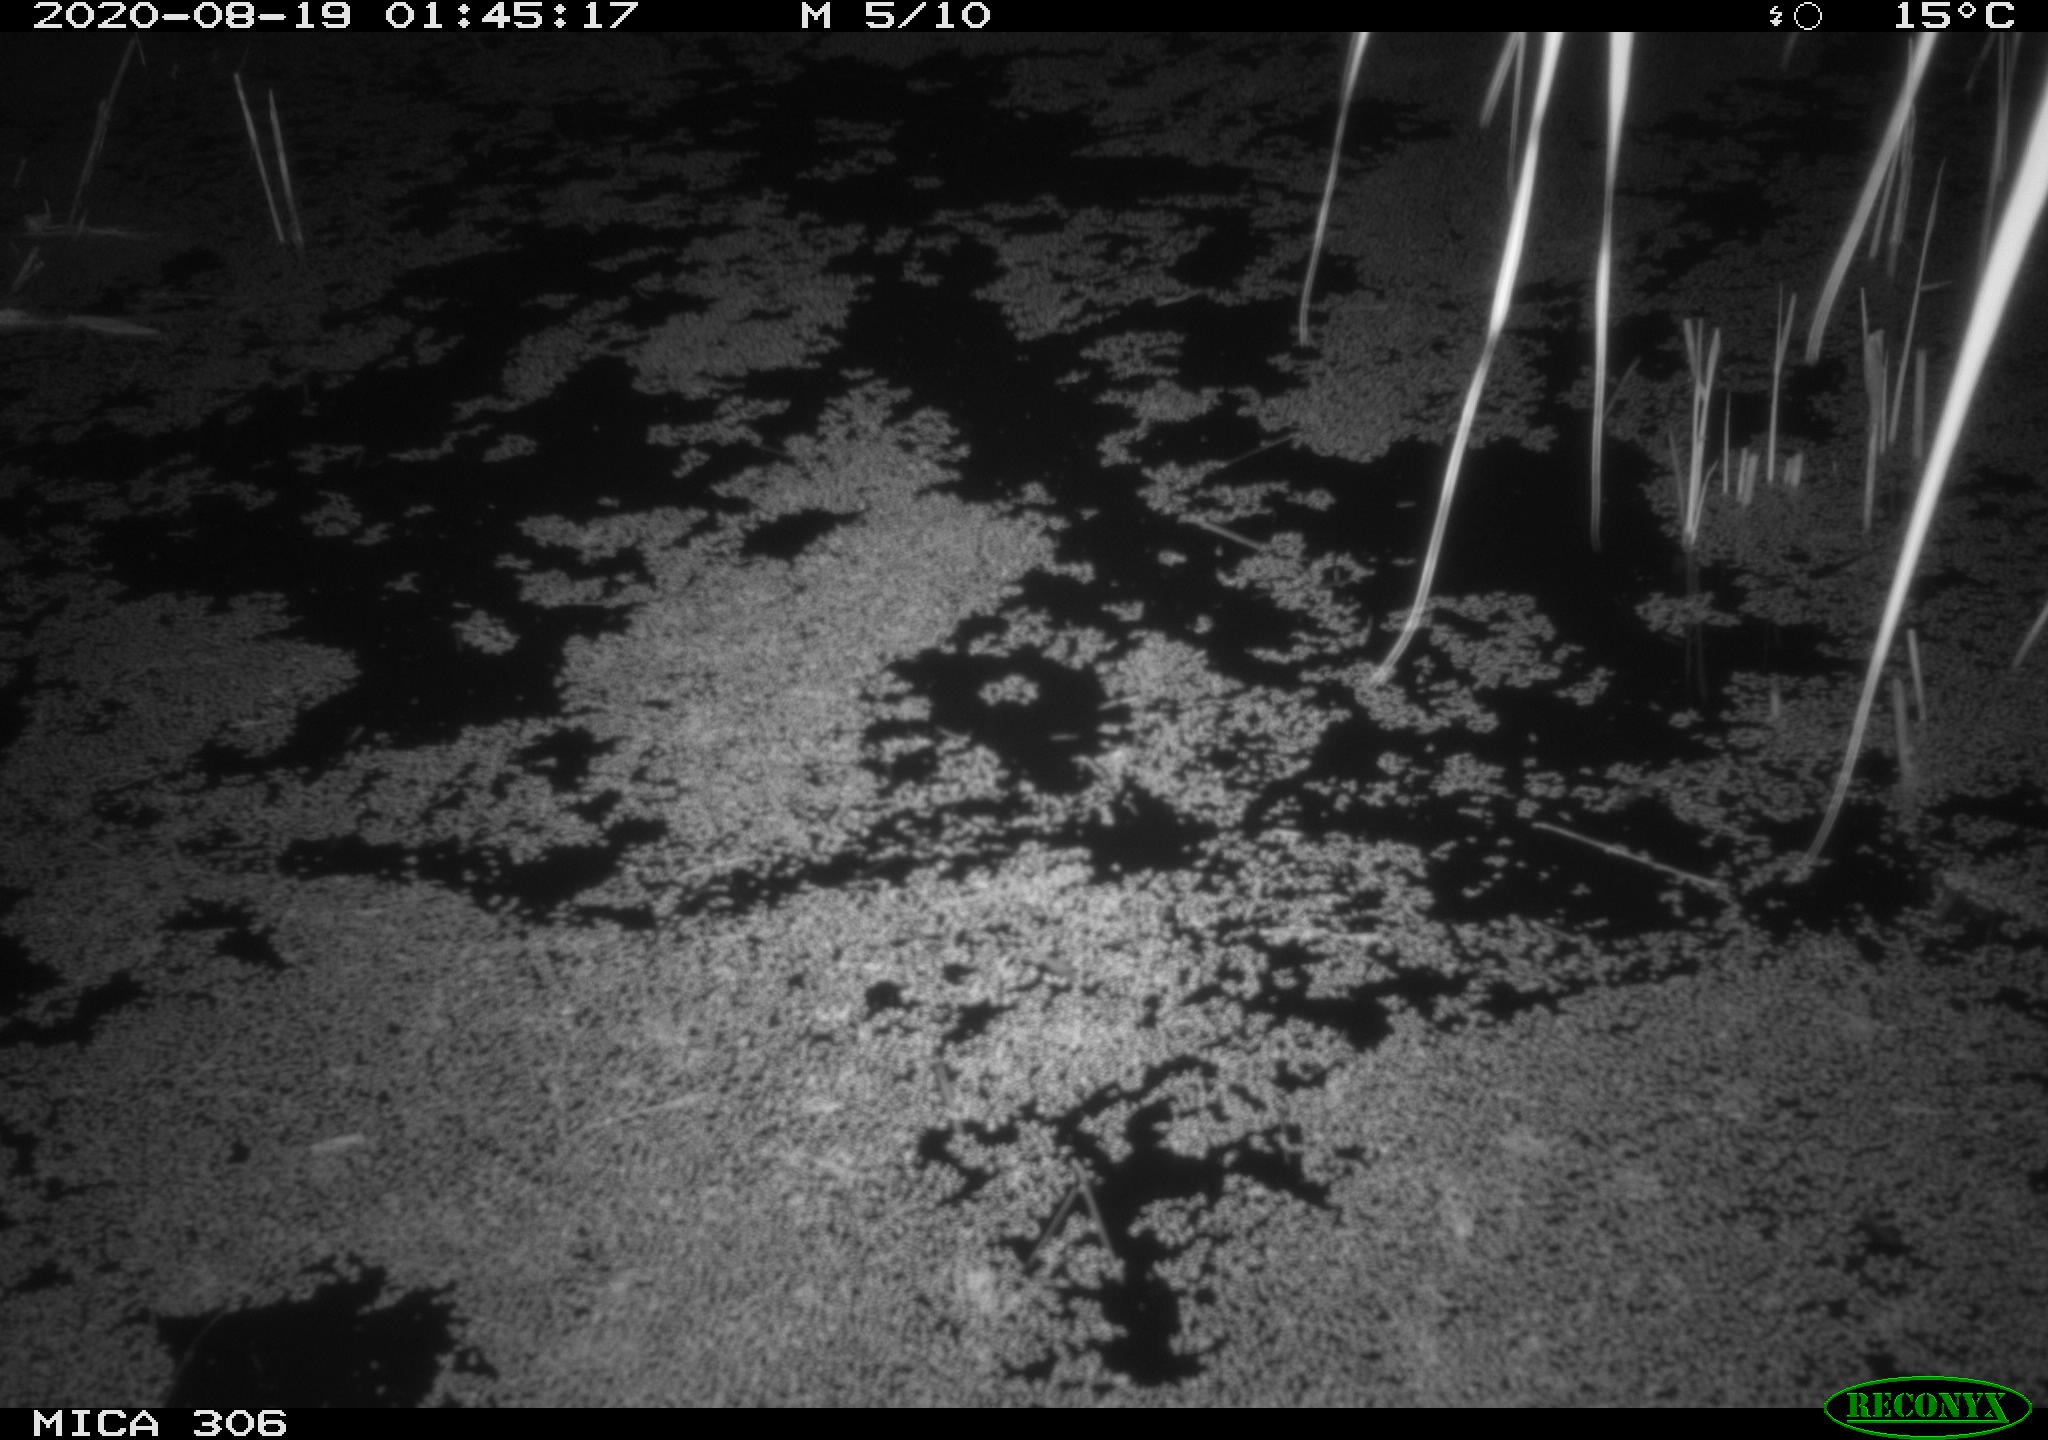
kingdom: Animalia
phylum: Chordata
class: Mammalia
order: Rodentia
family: Muridae
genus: Rattus
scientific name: Rattus norvegicus
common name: Brown rat
